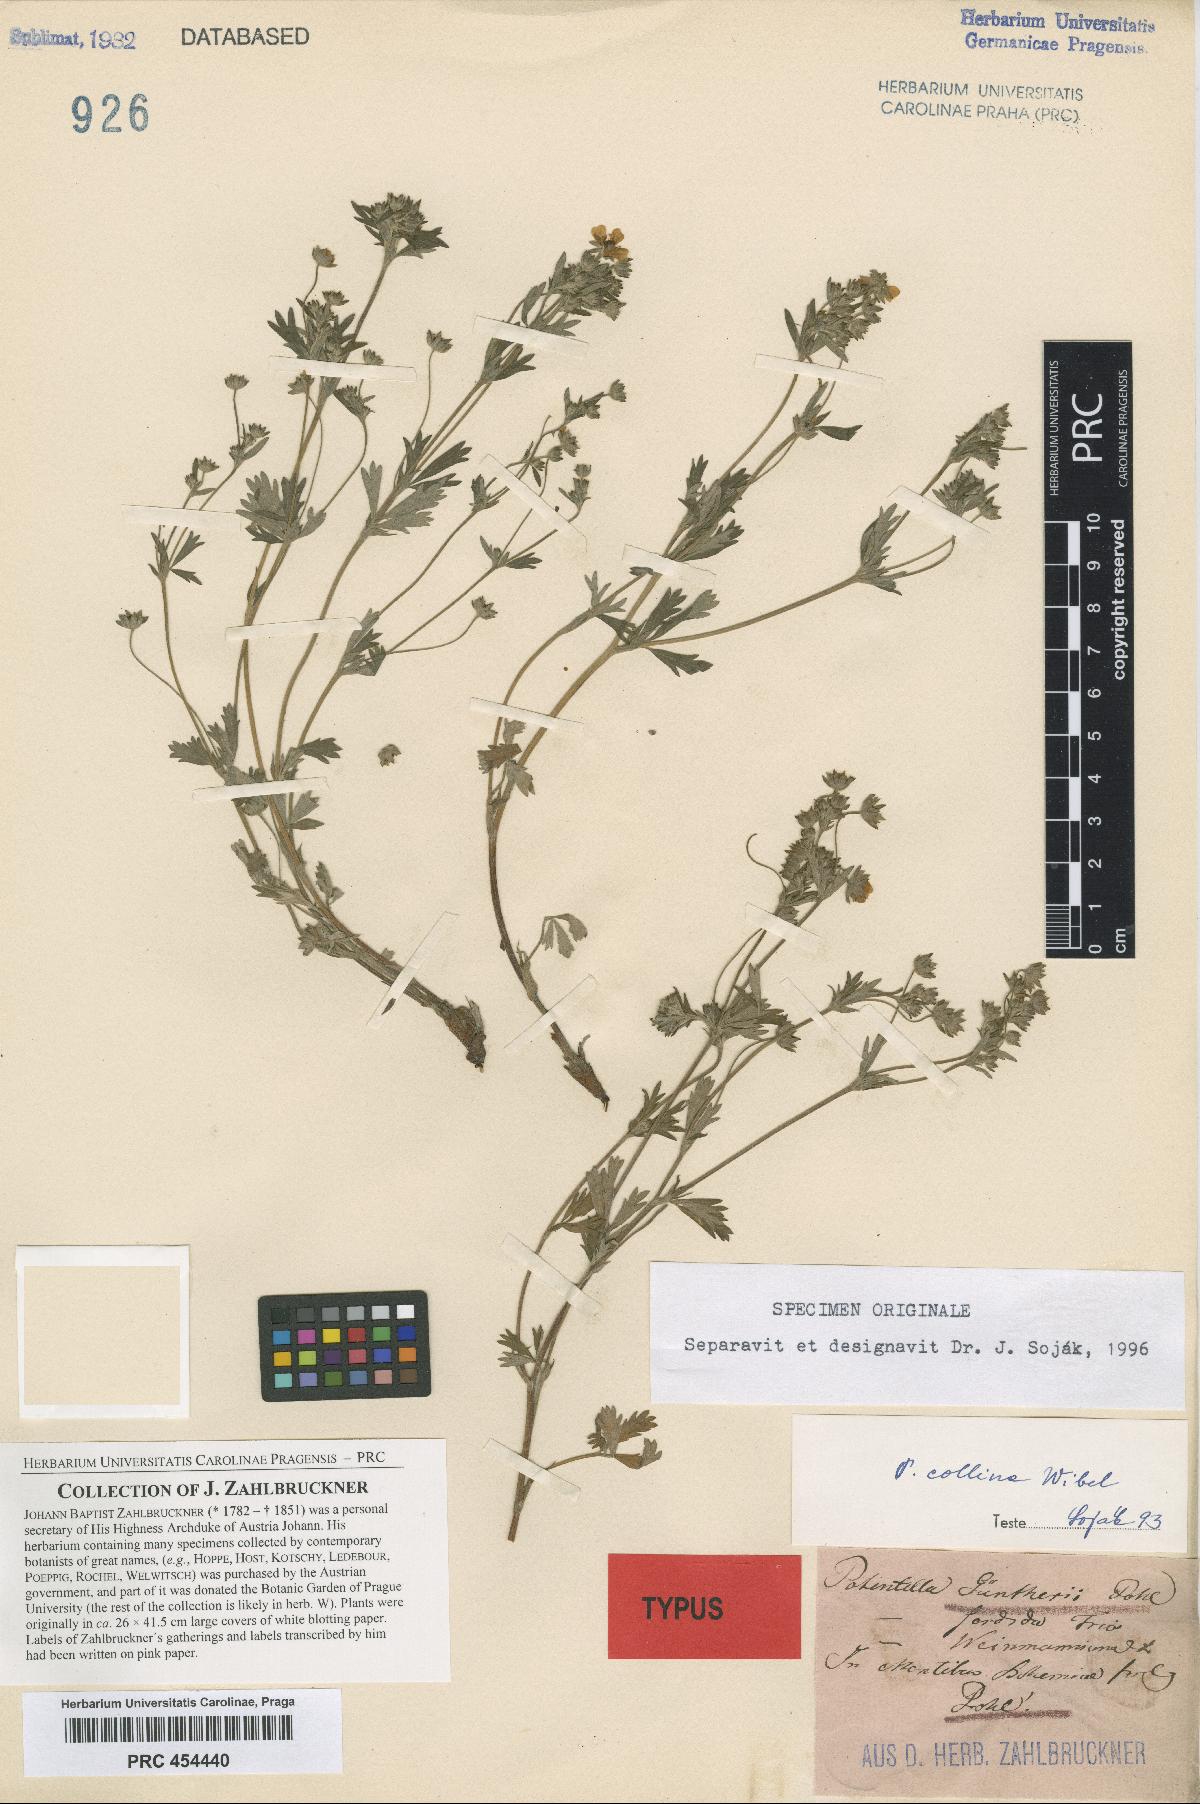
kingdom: Plantae
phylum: Tracheophyta
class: Magnoliopsida
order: Rosales
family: Rosaceae
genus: Potentilla
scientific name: Potentilla collina
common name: Palmleaf cinquefoil
